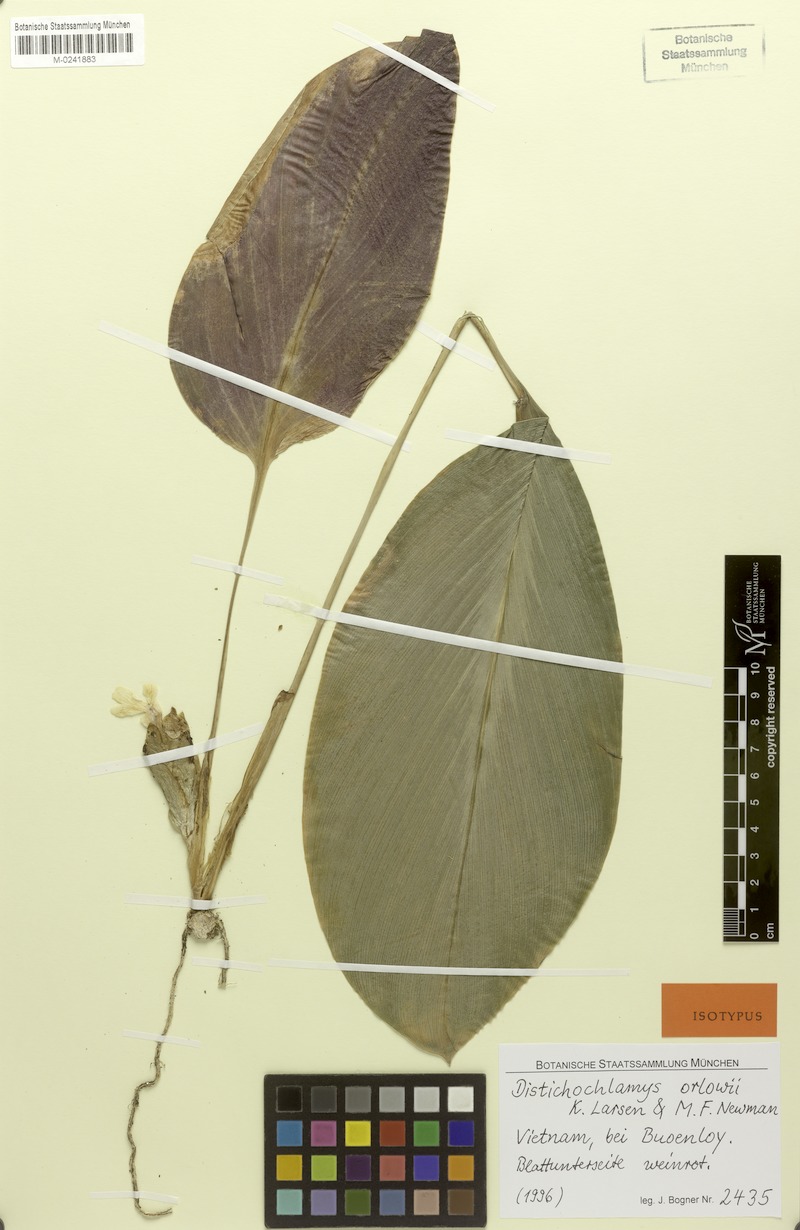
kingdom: Plantae
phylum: Tracheophyta
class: Liliopsida
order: Zingiberales
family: Zingiberaceae
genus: Distichochlamys
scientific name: Distichochlamys orlowii
